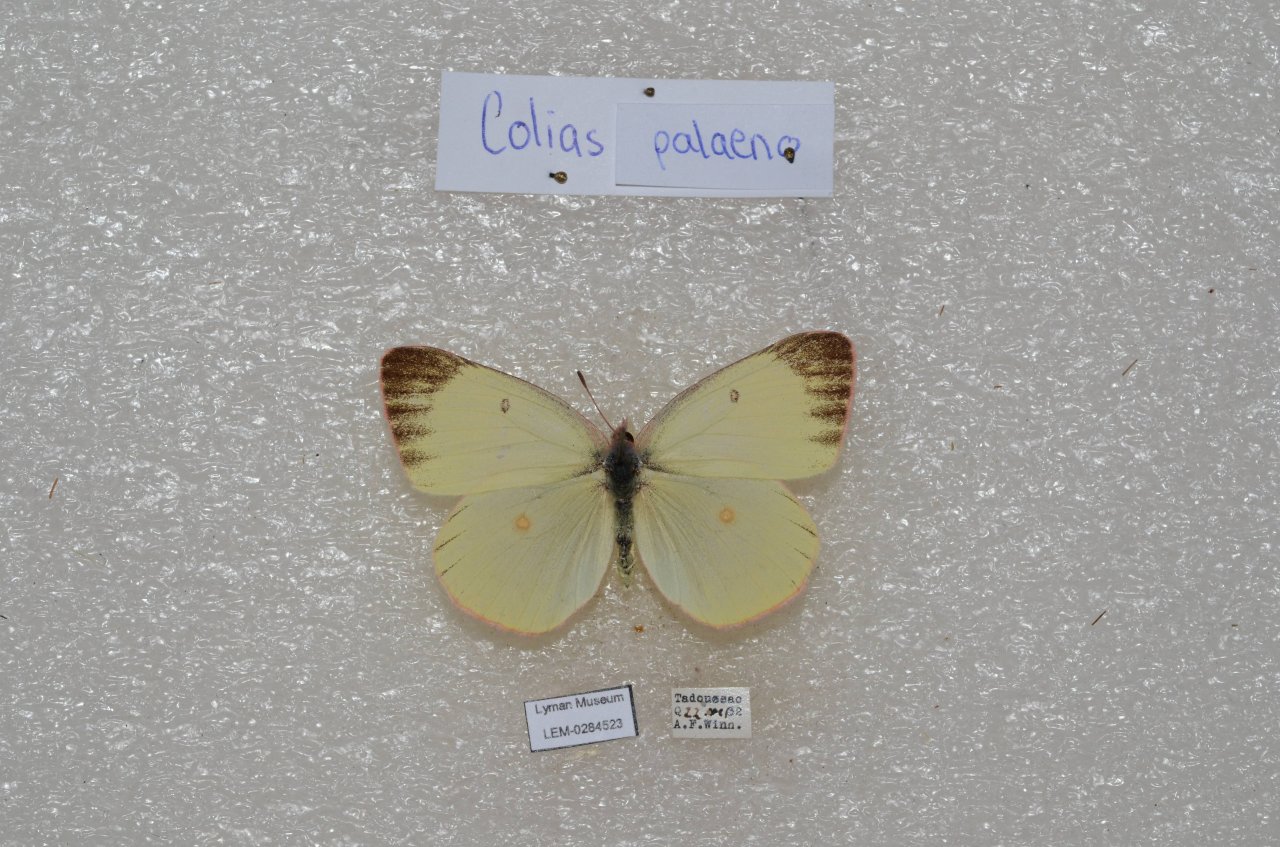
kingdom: Animalia
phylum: Arthropoda
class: Insecta
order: Lepidoptera
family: Pieridae
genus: Colias
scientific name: Colias interior
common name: Pink-edged Sulphur
